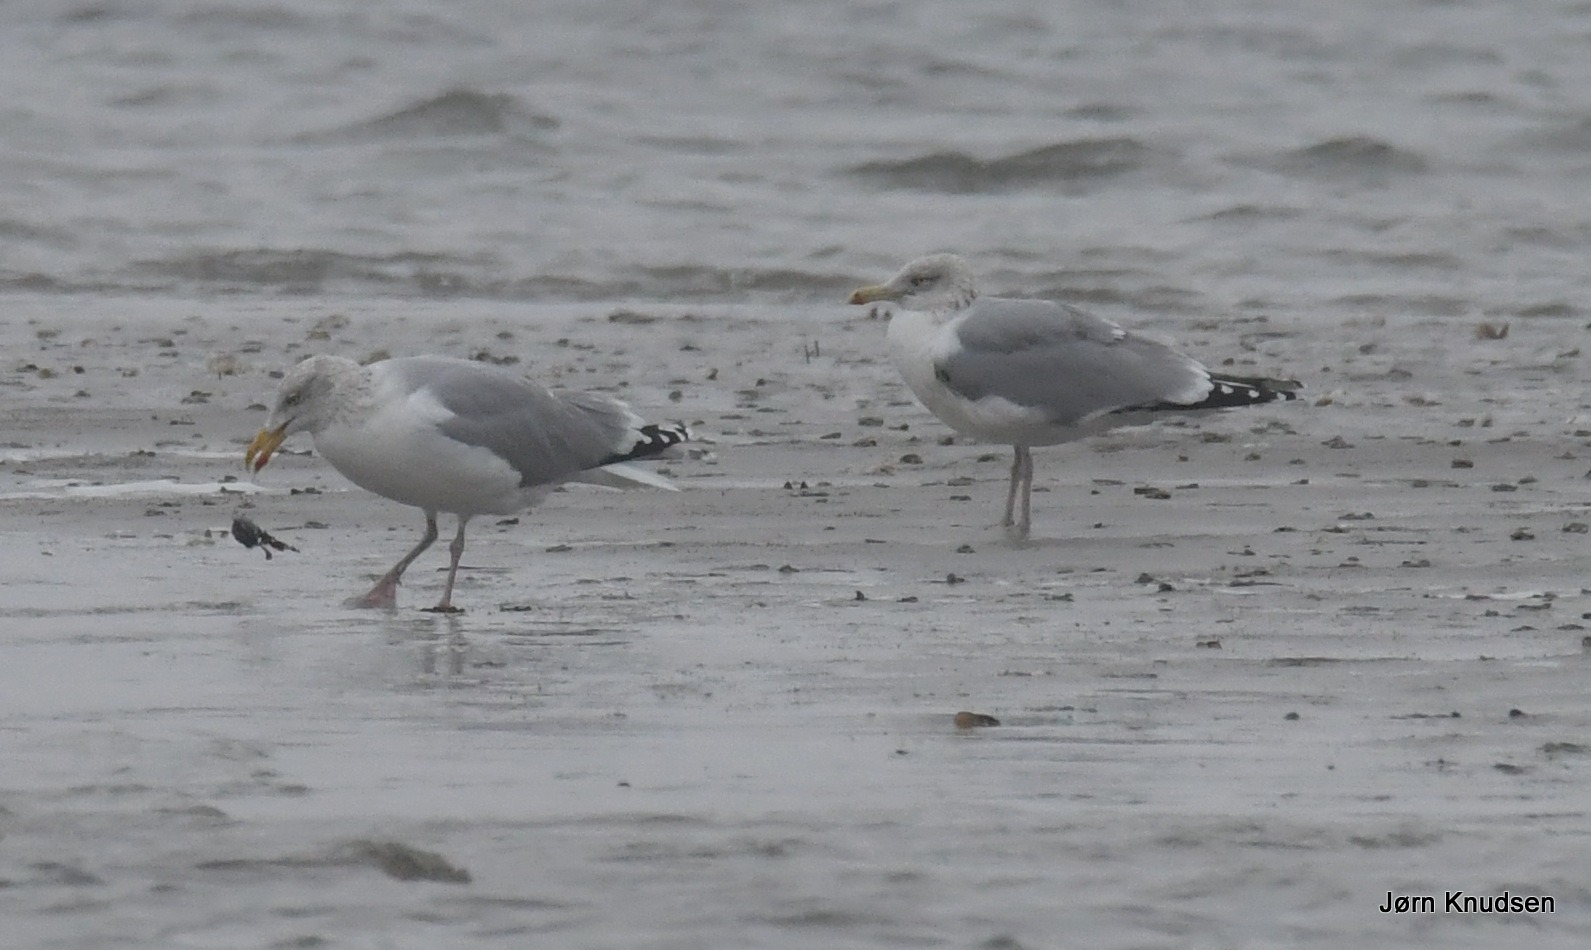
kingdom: Animalia
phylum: Chordata
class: Aves
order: Charadriiformes
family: Laridae
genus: Larus
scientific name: Larus argentatus
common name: Sølvmåge
